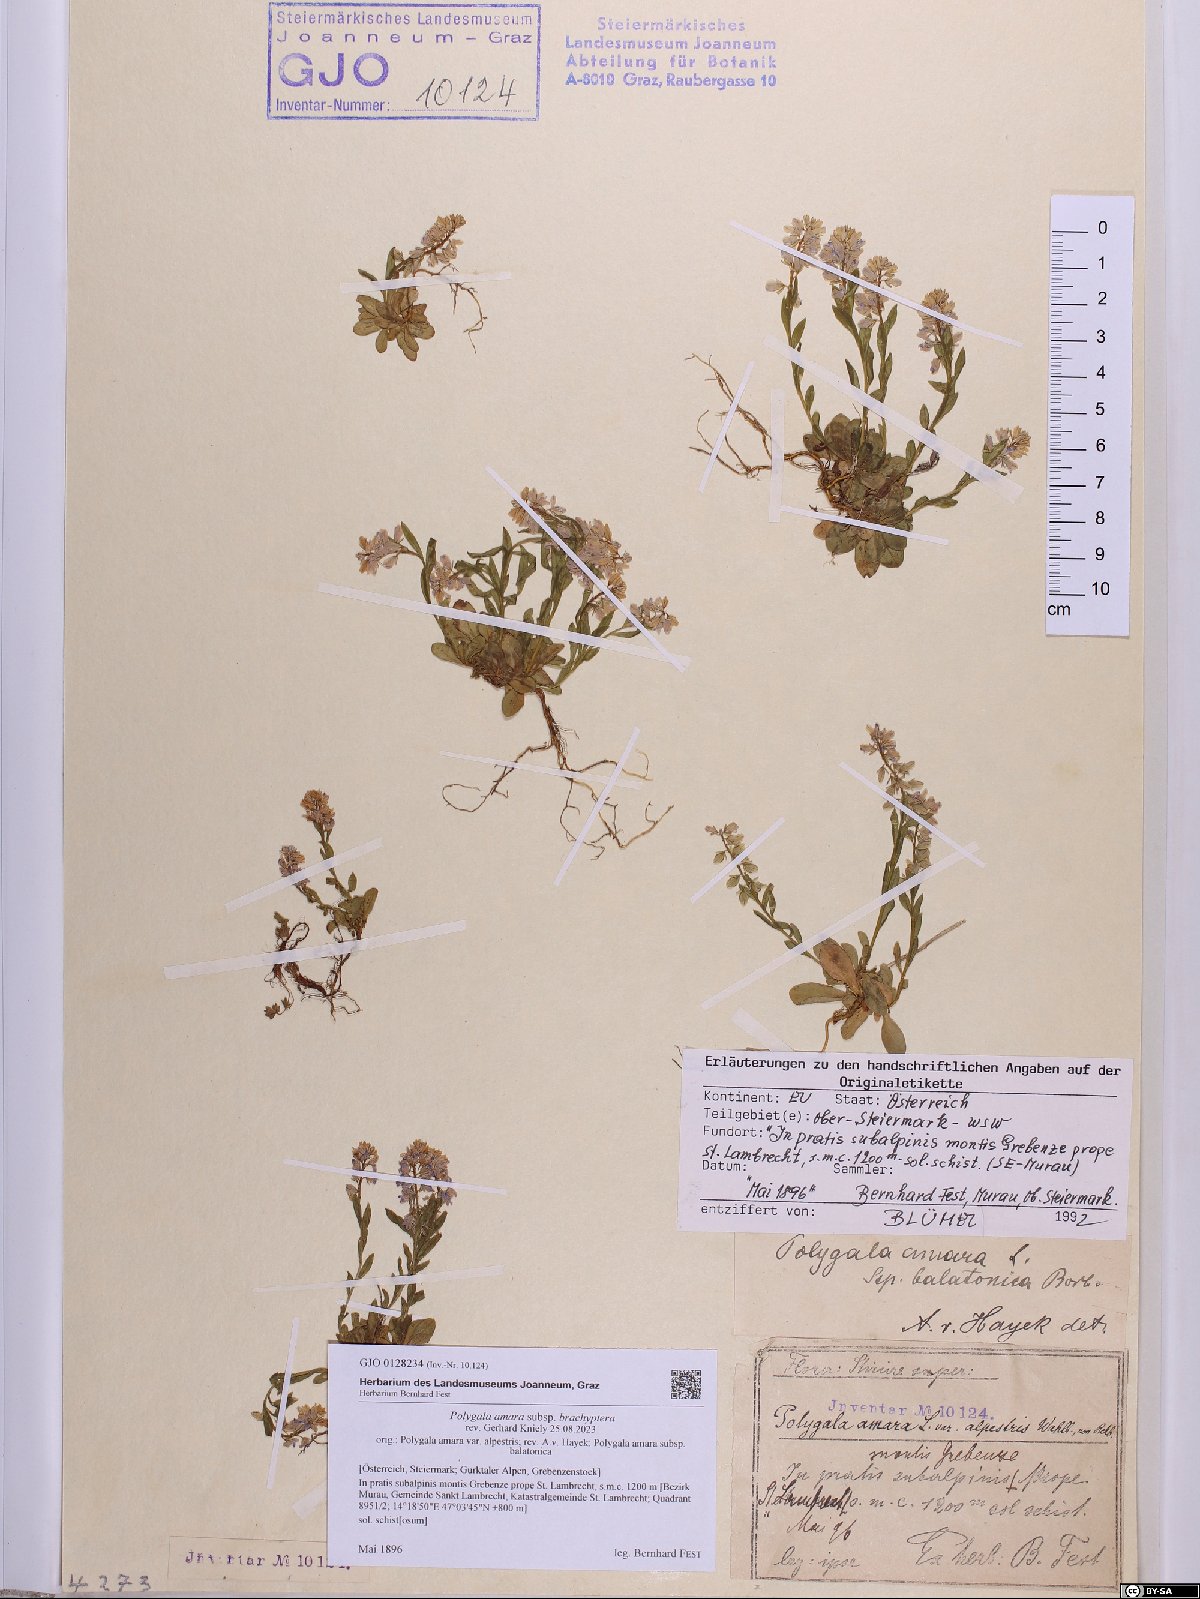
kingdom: Plantae
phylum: Tracheophyta
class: Magnoliopsida
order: Fabales
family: Polygalaceae
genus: Polygala
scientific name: Polygala amara
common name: Milkwort
